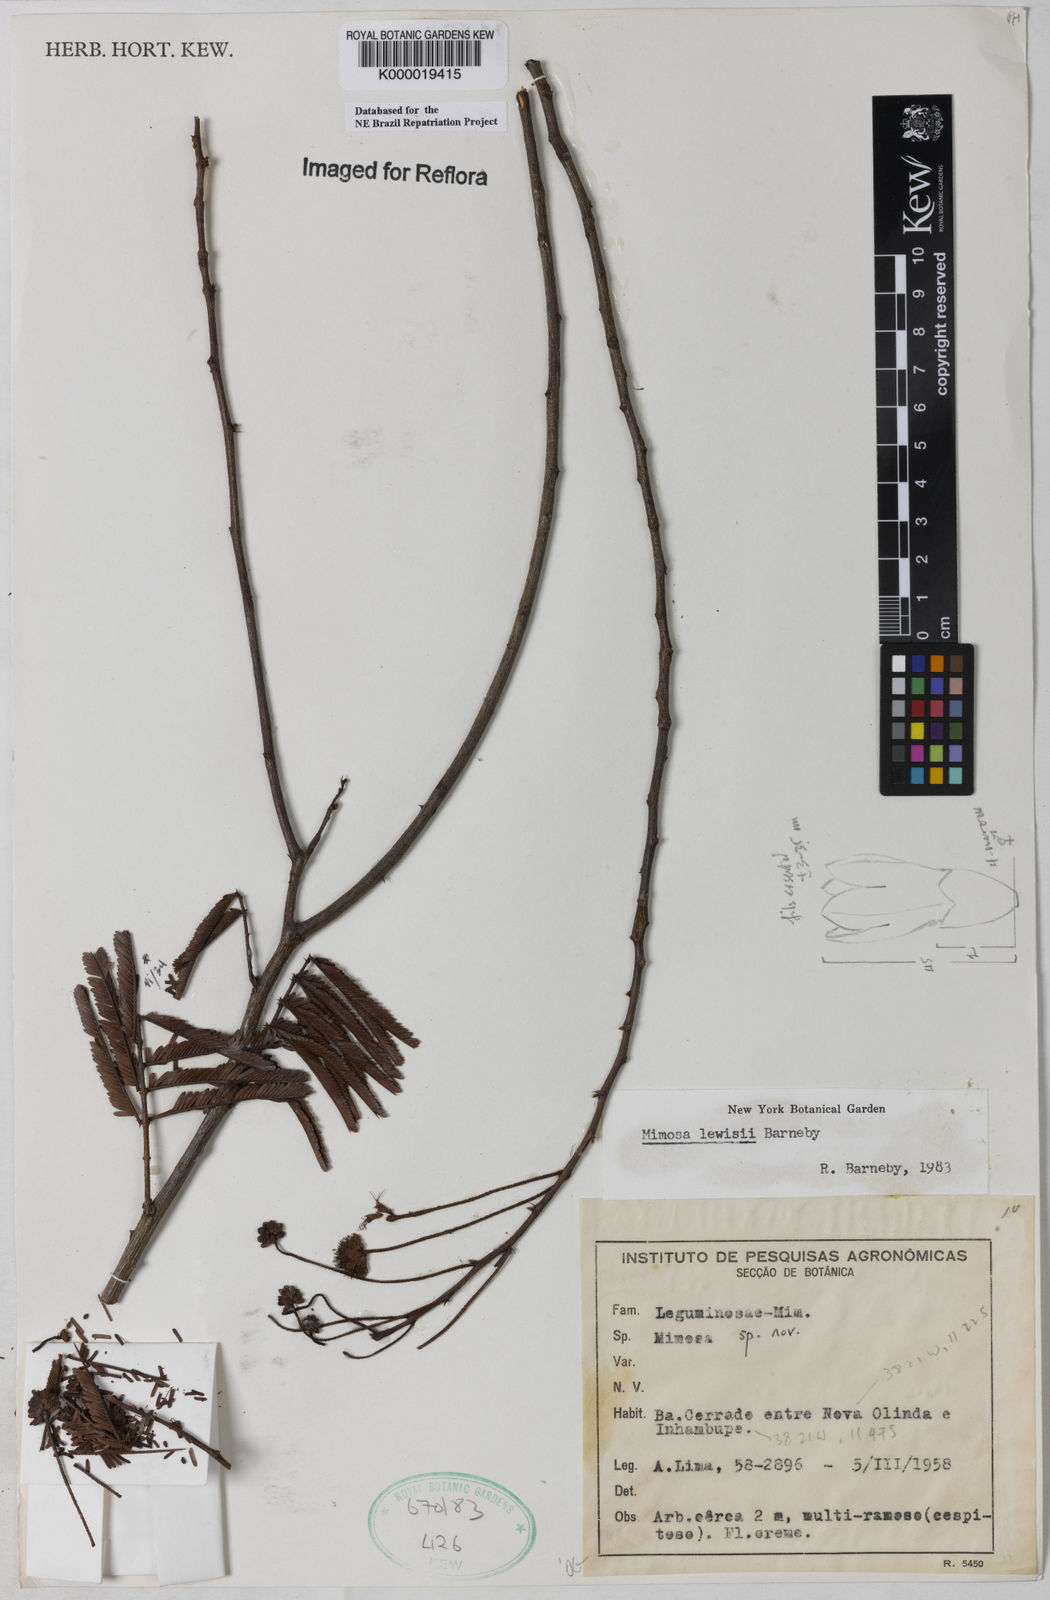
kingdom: Plantae
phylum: Tracheophyta
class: Magnoliopsida
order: Fabales
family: Fabaceae
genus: Mimosa
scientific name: Mimosa lewisii
